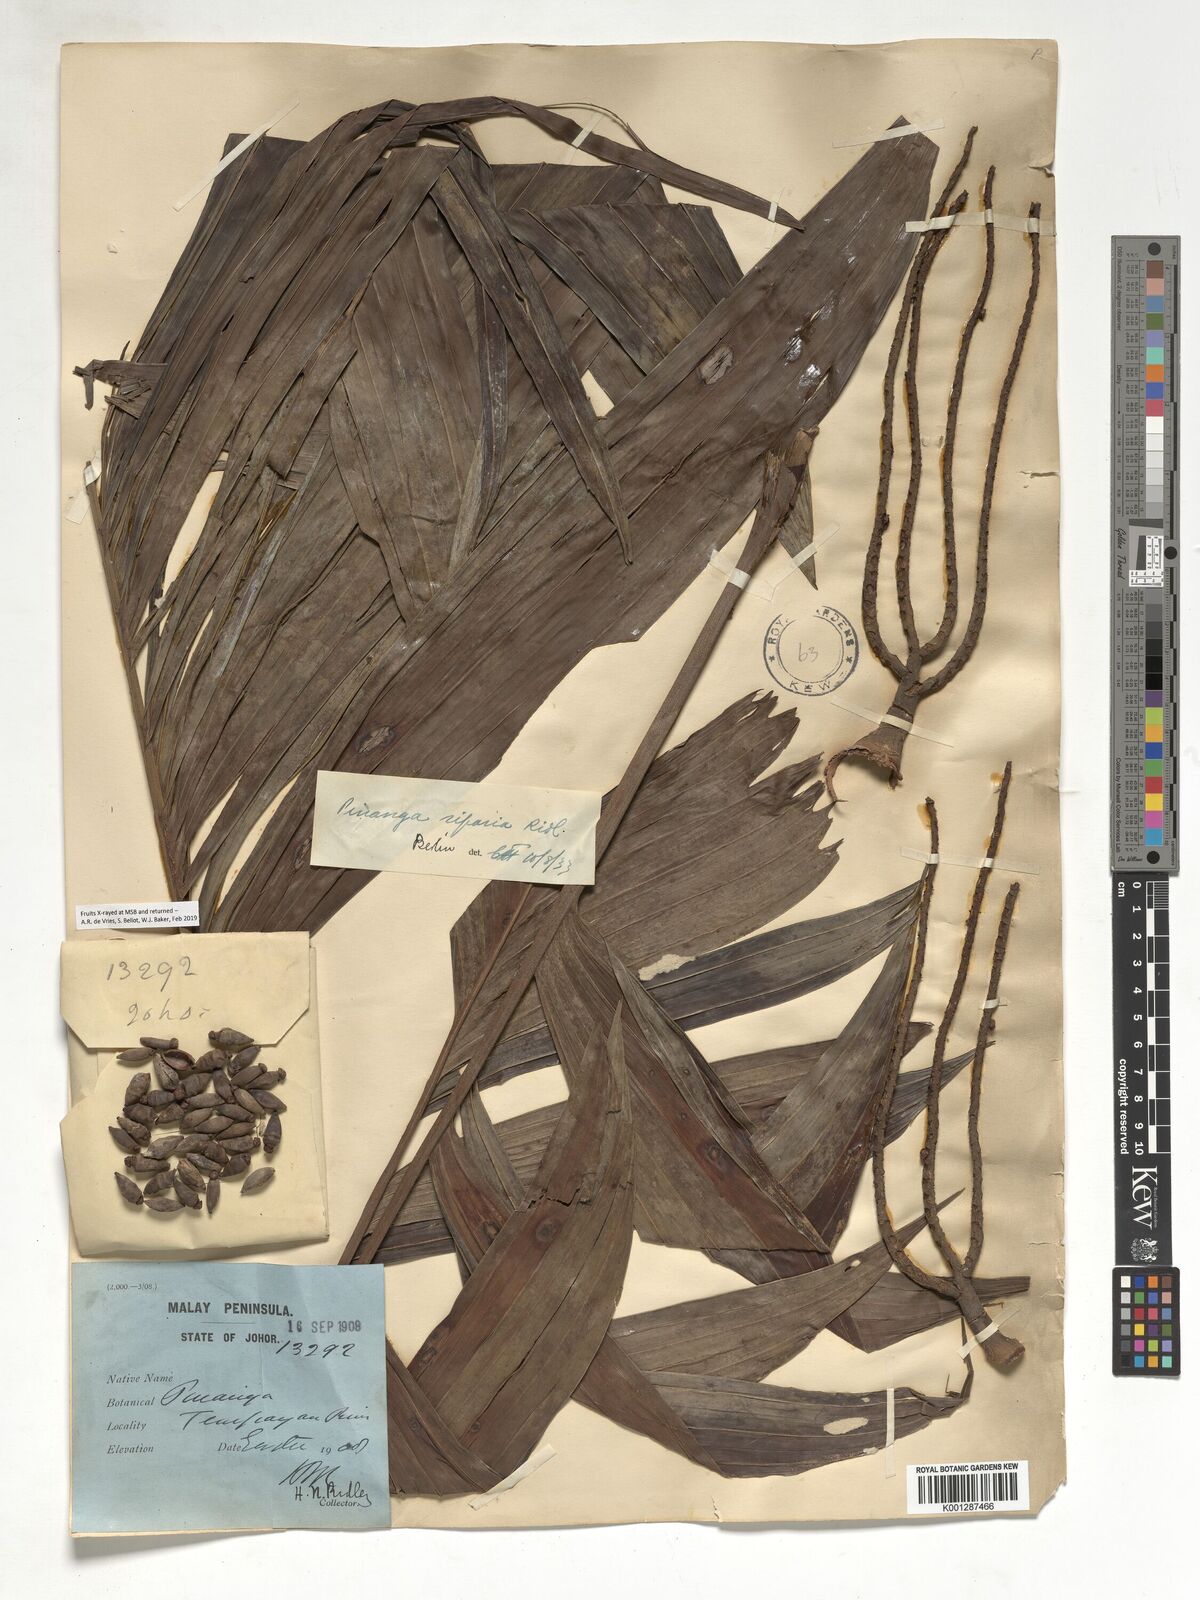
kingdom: Plantae
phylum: Tracheophyta
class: Liliopsida
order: Arecales
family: Arecaceae
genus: Pinanga
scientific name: Pinanga riparia
